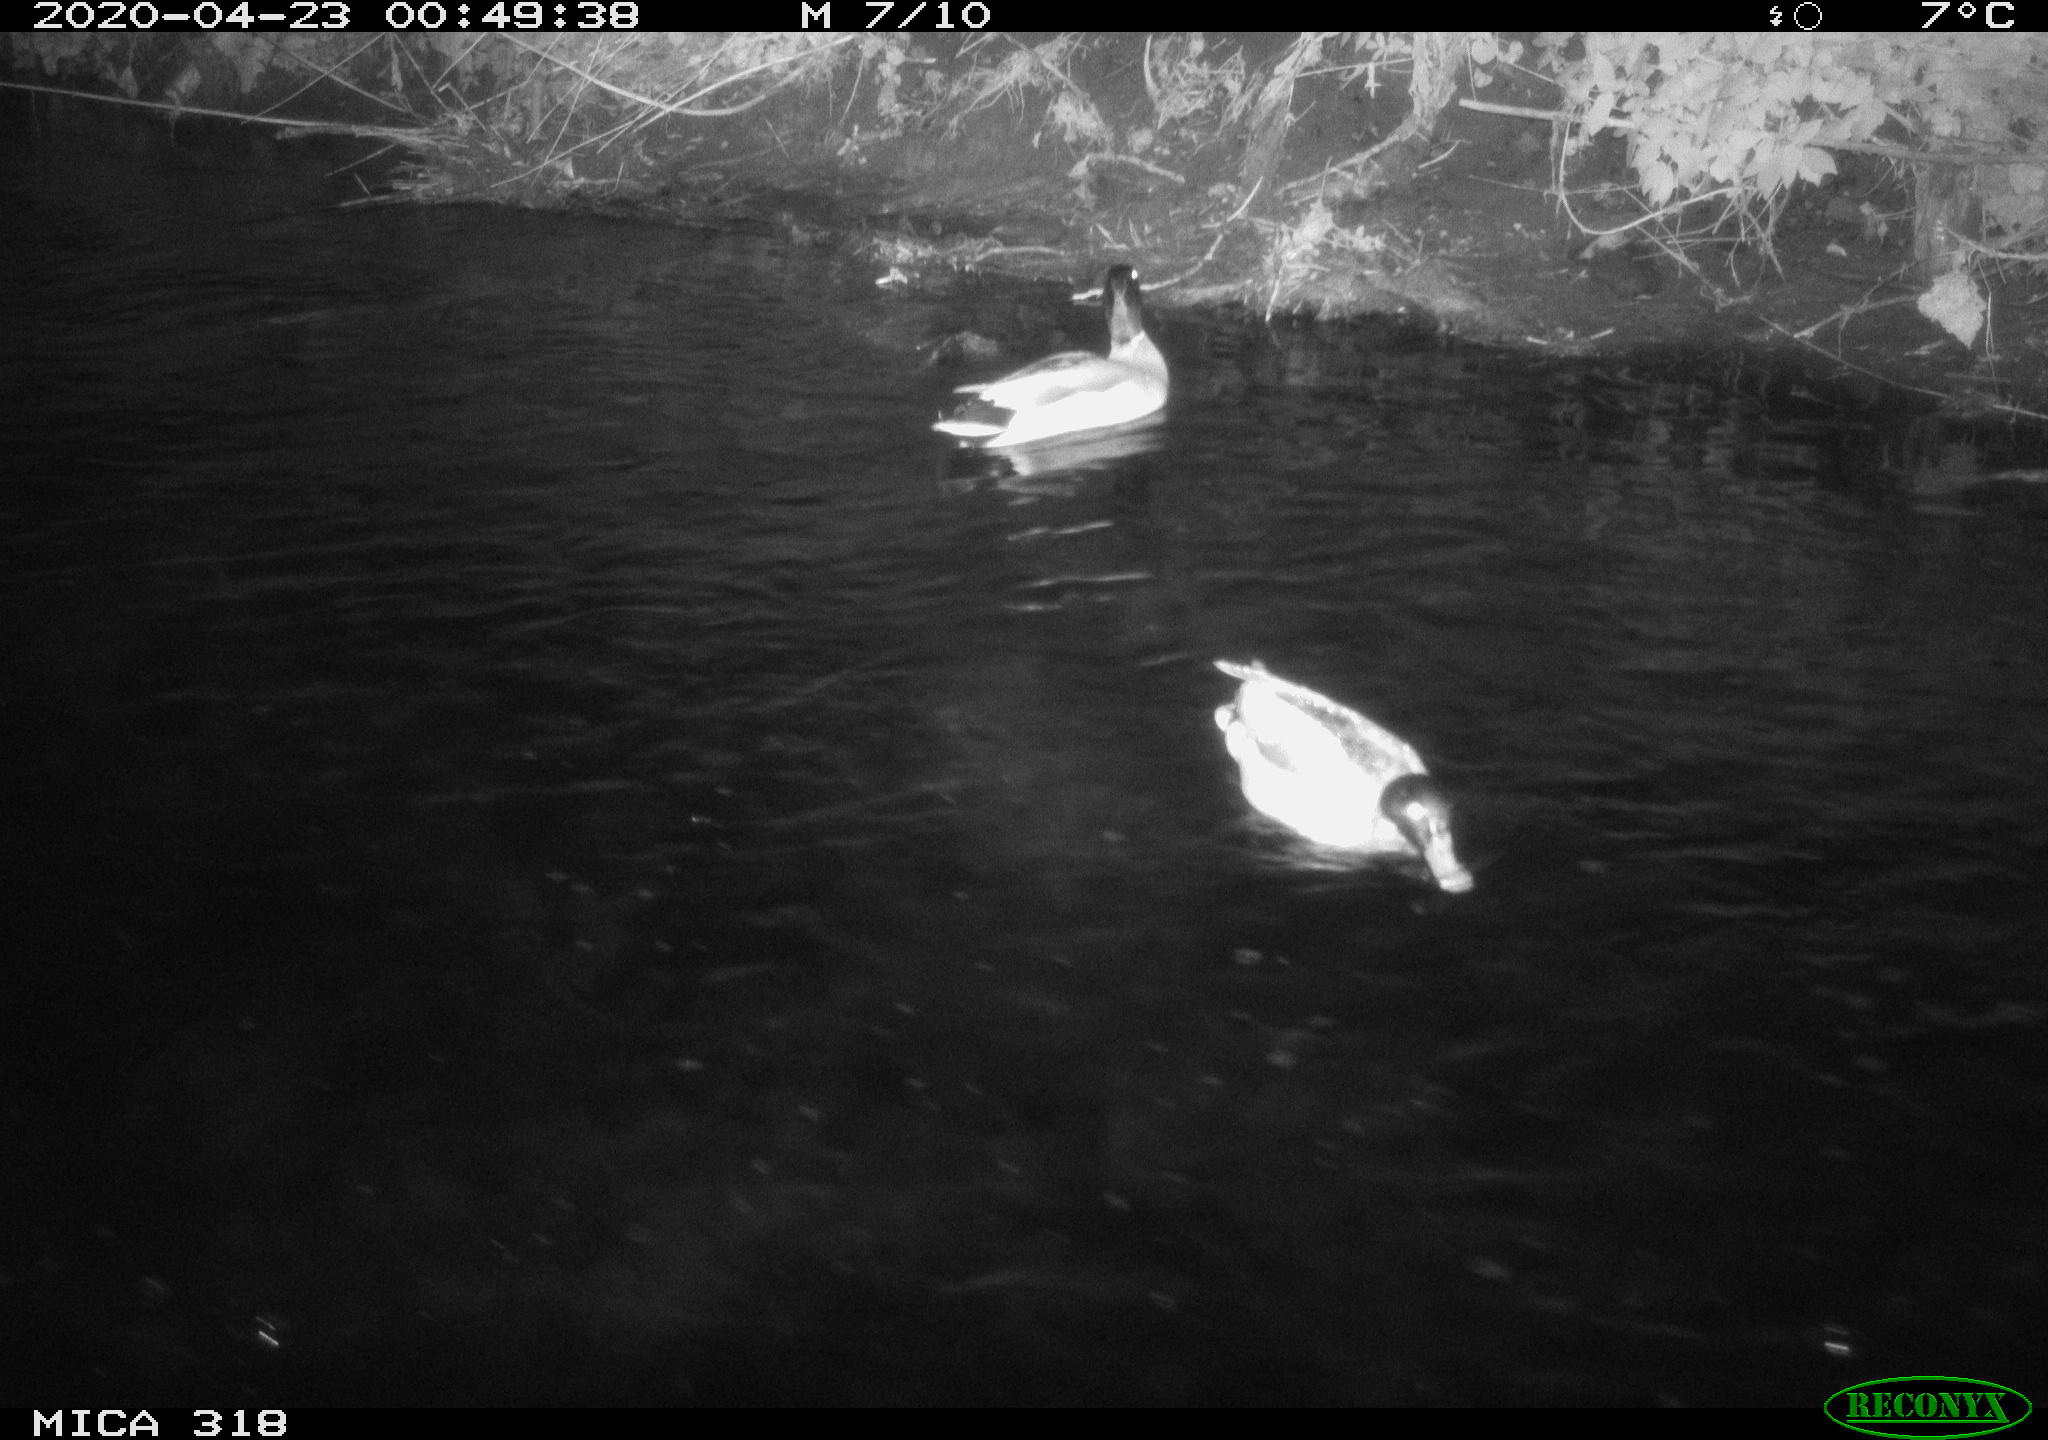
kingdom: Animalia
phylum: Chordata
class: Aves
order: Anseriformes
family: Anatidae
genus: Anas
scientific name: Anas platyrhynchos
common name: Mallard
